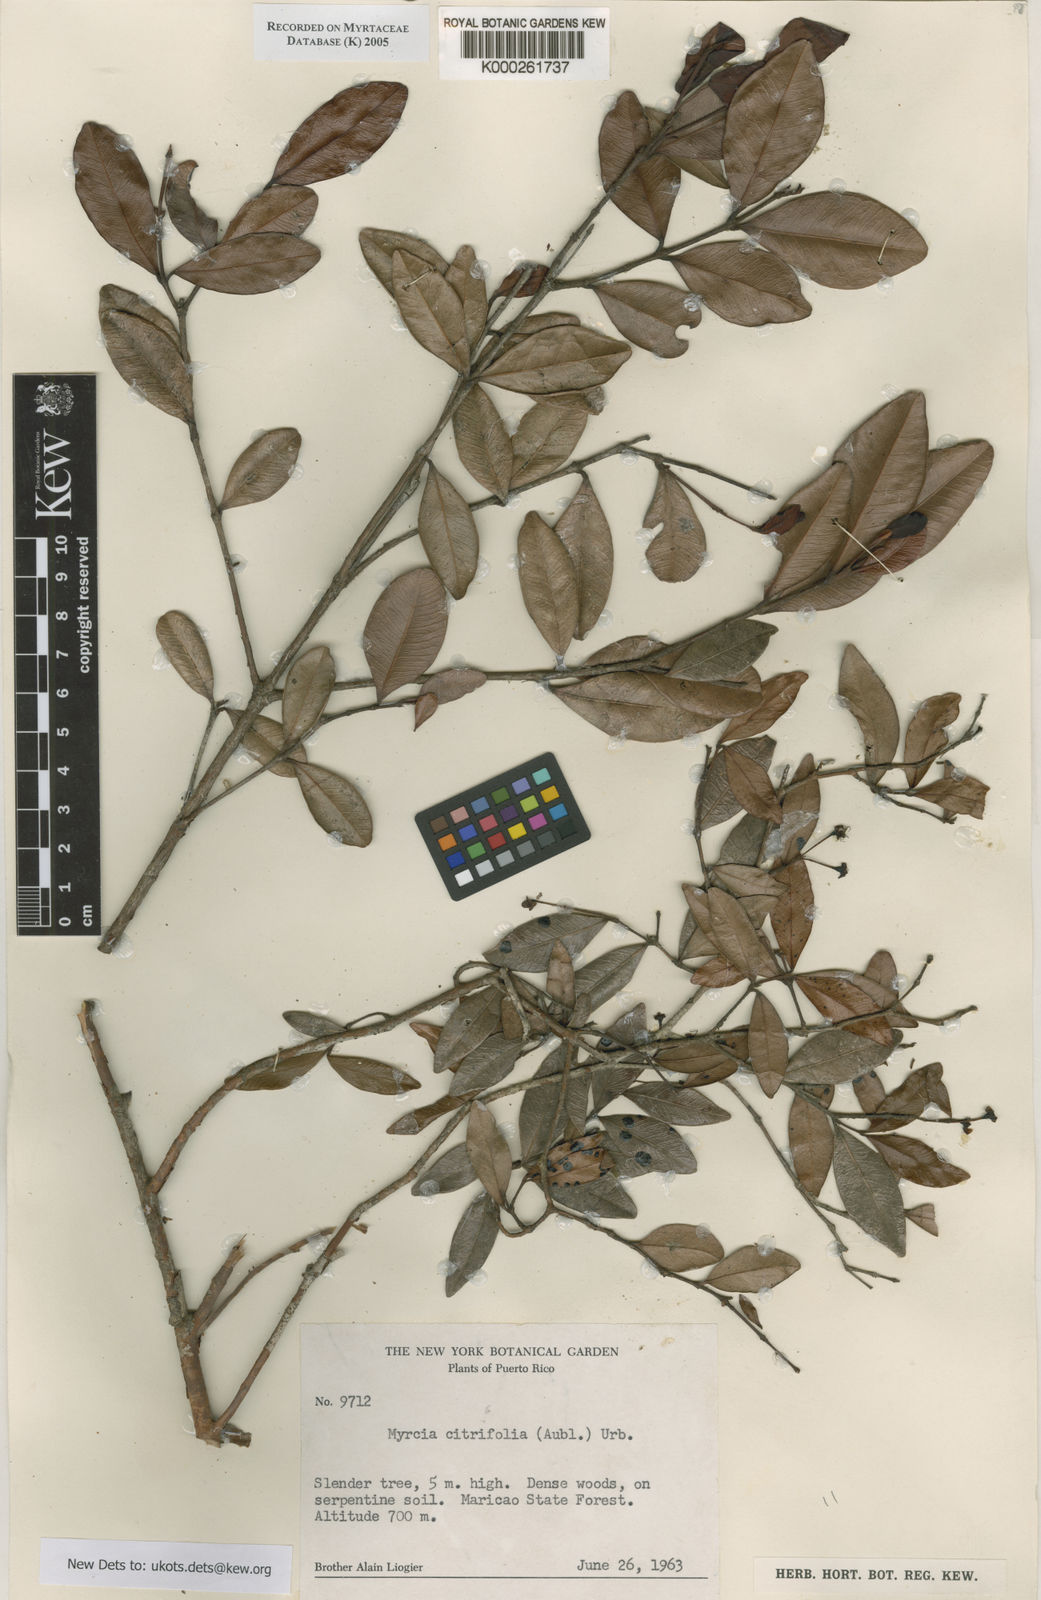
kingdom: Plantae
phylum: Tracheophyta
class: Magnoliopsida
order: Myrtales
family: Myrtaceae
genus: Myrcia
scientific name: Myrcia guianensis
